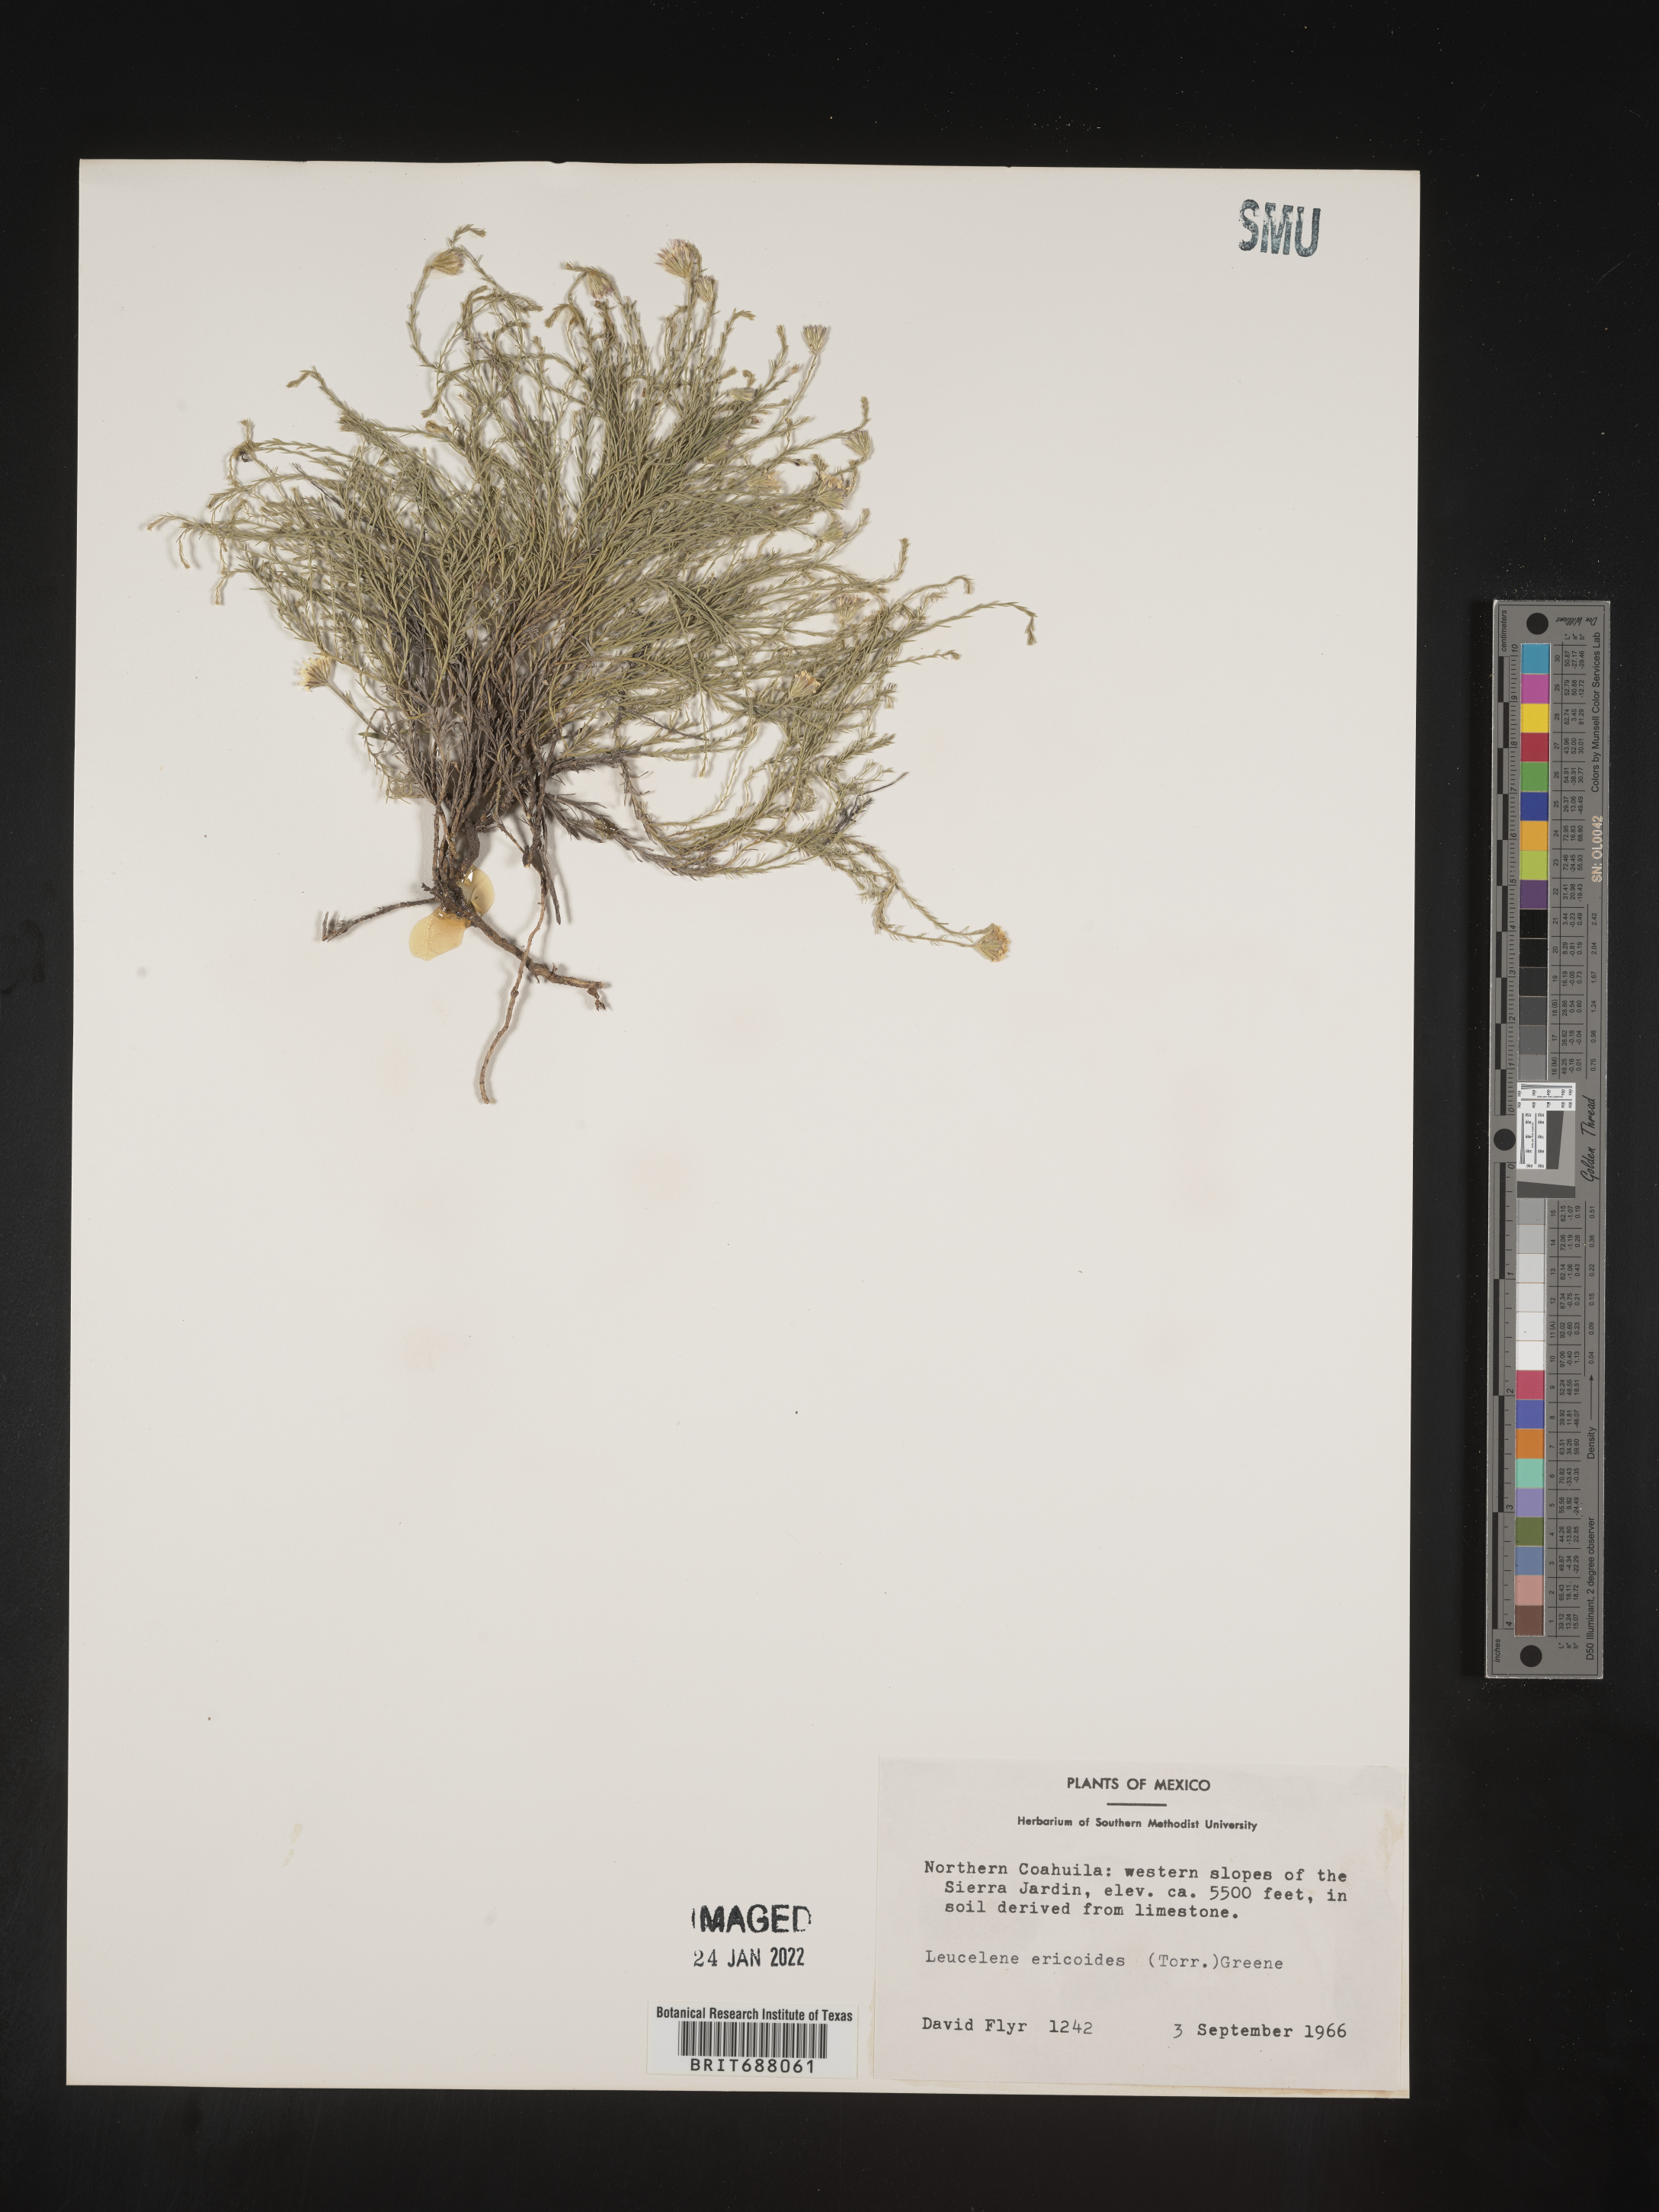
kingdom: Plantae
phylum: Tracheophyta
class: Magnoliopsida
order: Asterales
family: Asteraceae
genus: Chaetopappa
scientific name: Chaetopappa
